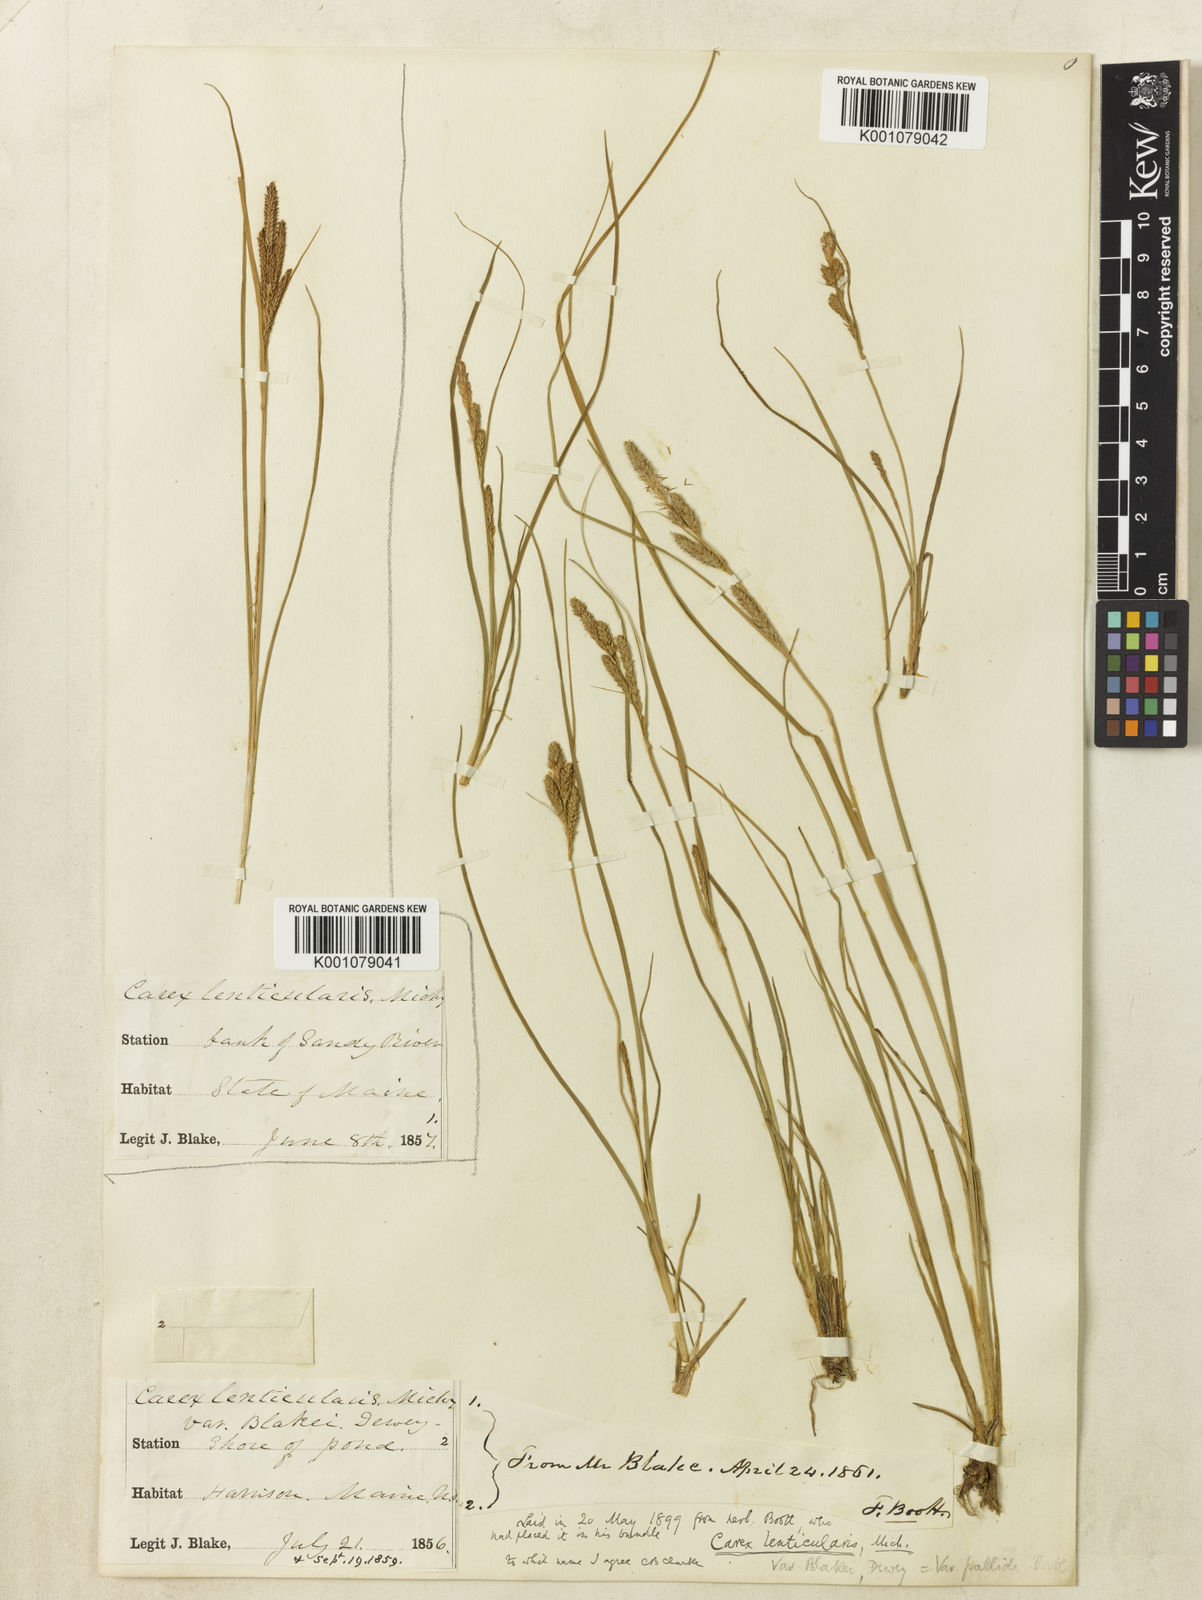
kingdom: Plantae
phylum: Tracheophyta
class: Liliopsida
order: Poales
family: Cyperaceae
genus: Carex
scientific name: Carex lenticularis
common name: Lakeshore sedge
